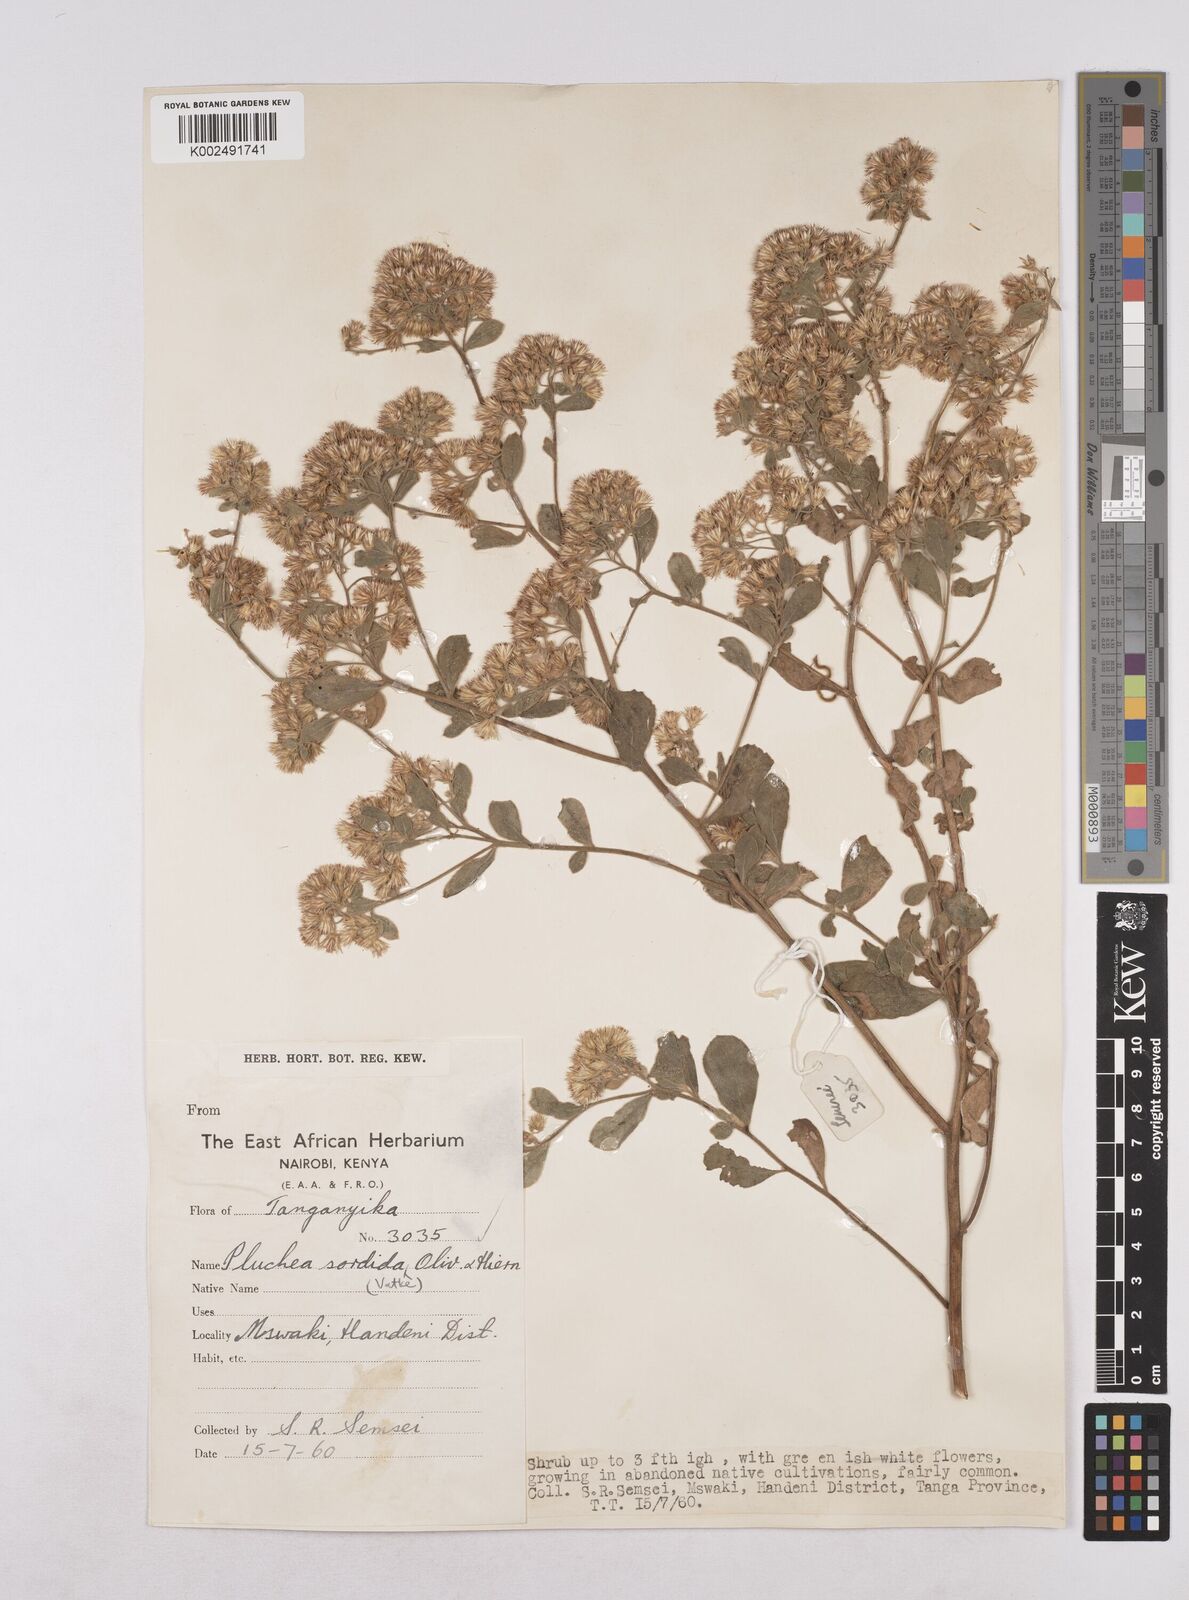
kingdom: Plantae
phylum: Tracheophyta
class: Magnoliopsida
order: Asterales
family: Asteraceae
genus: Pluchea
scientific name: Pluchea sordida
